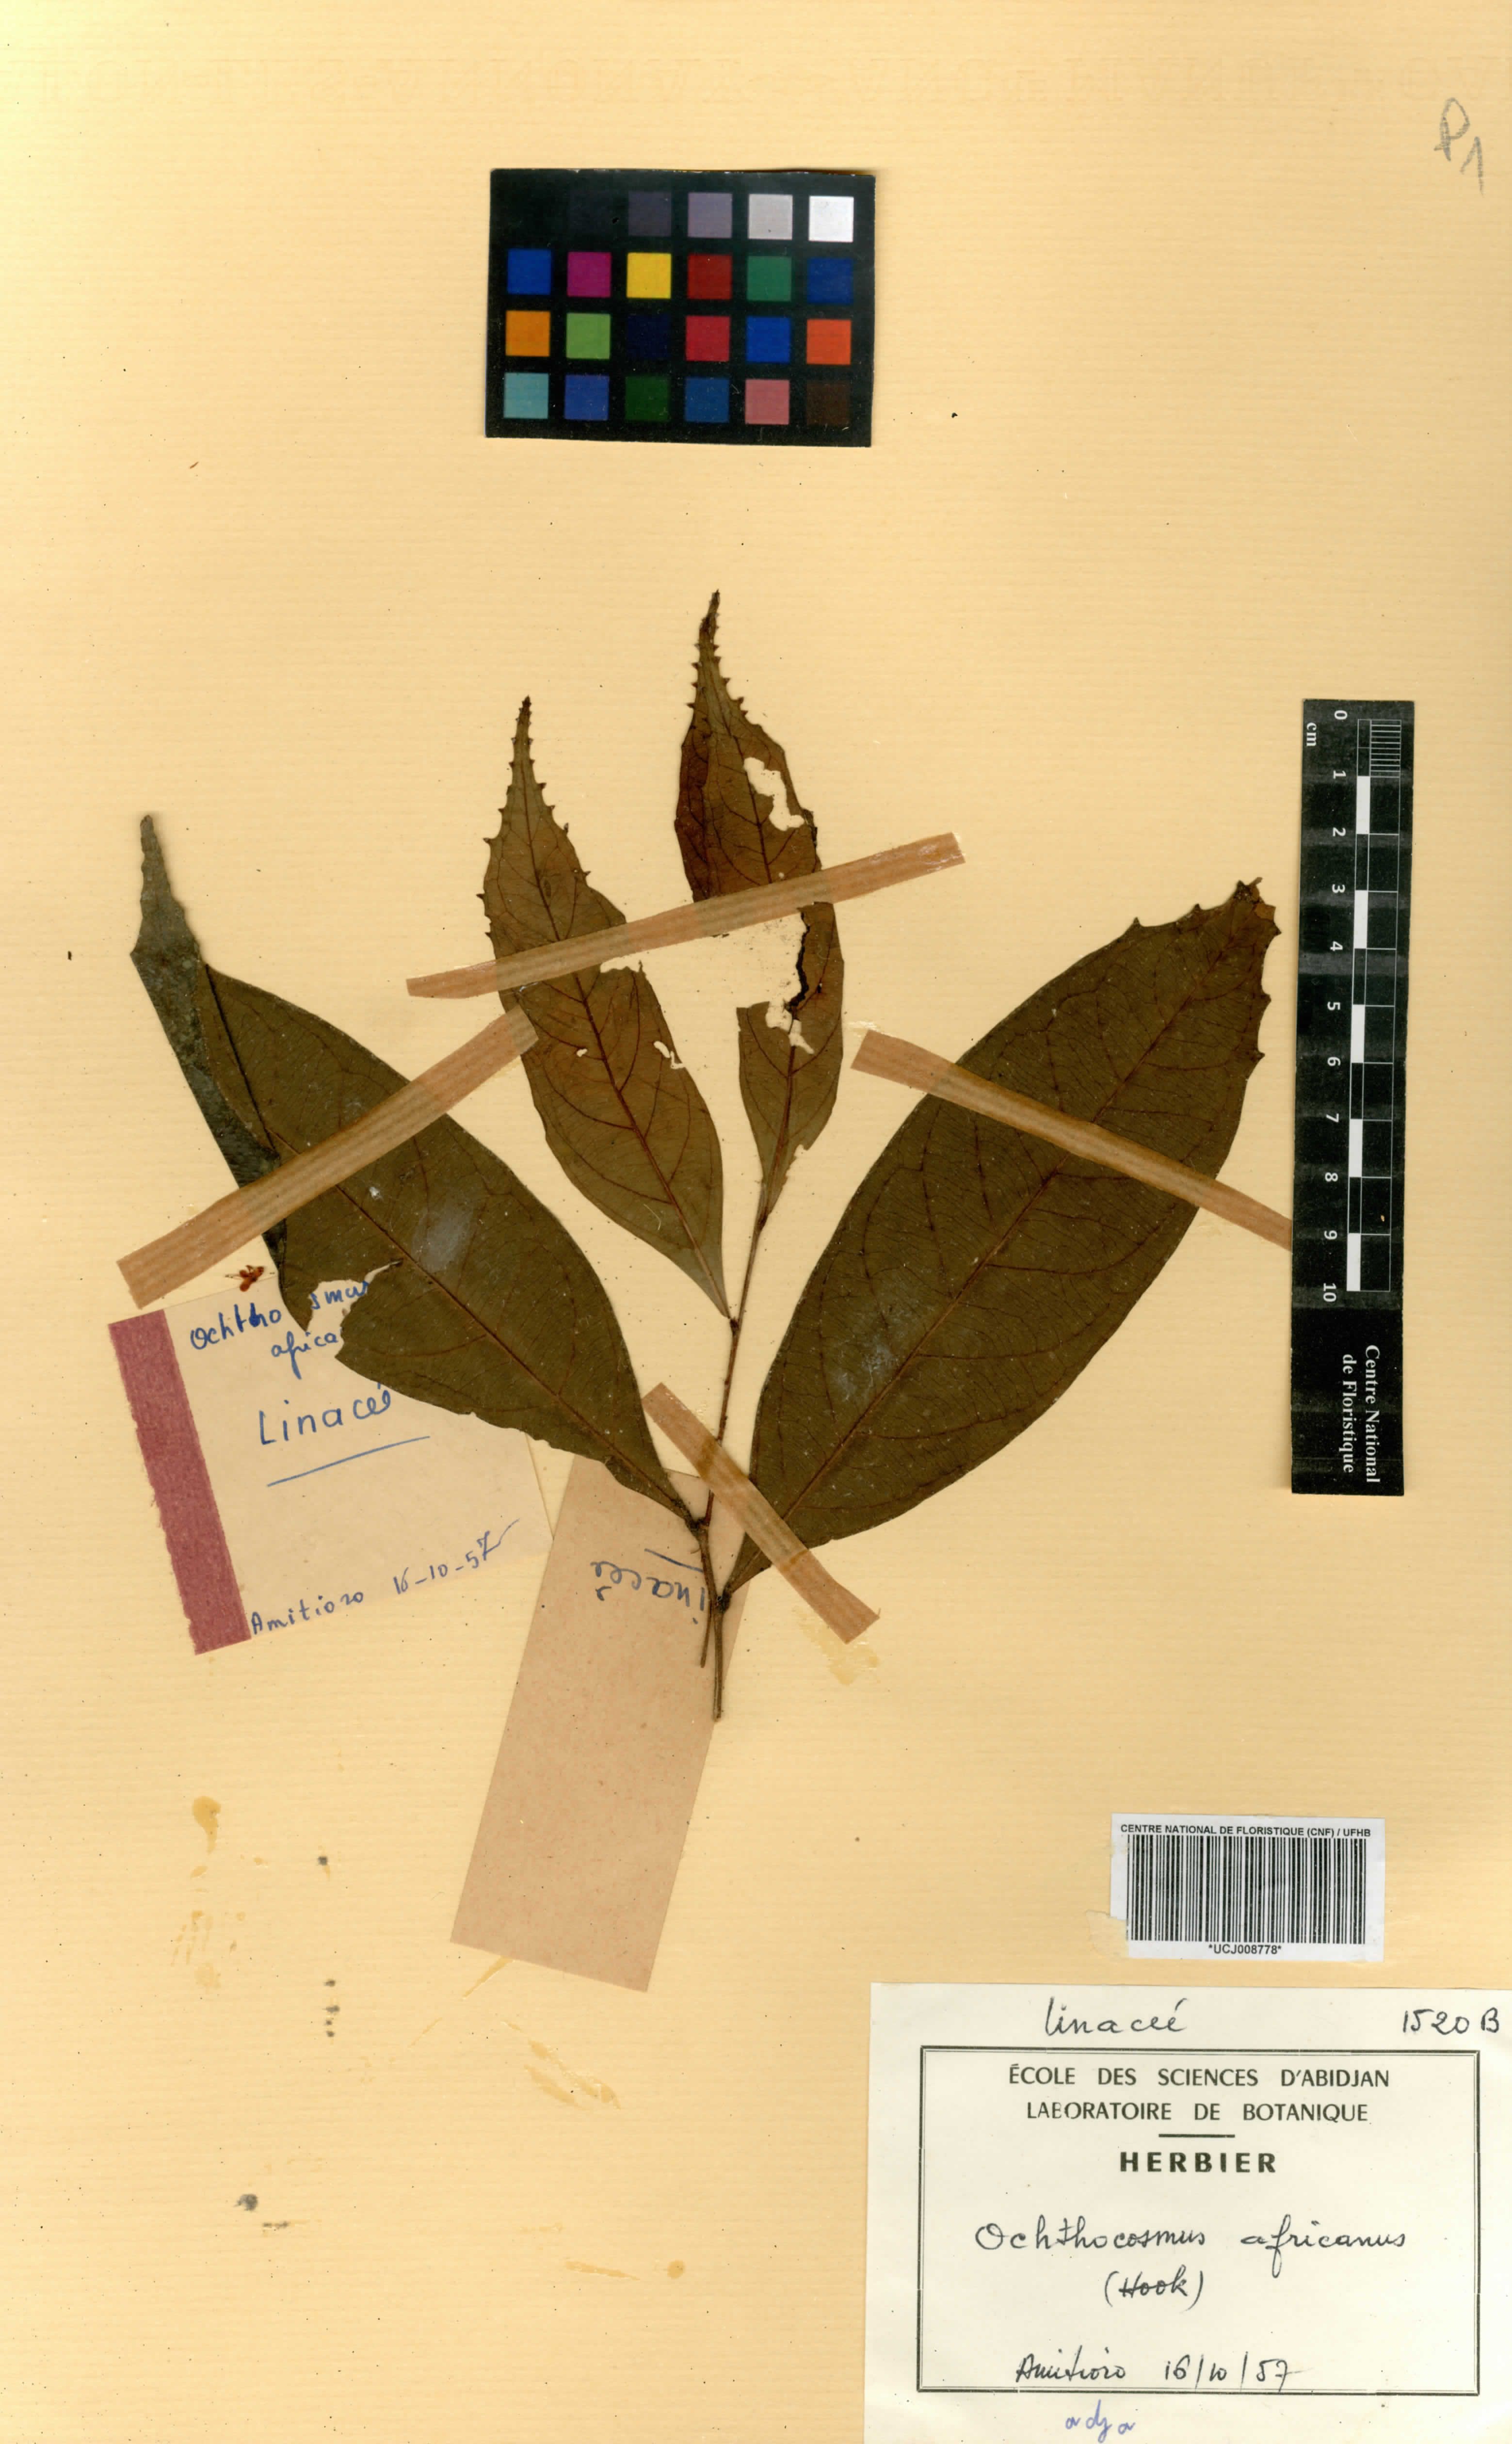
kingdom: Plantae
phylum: Tracheophyta
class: Magnoliopsida
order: Malpighiales
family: Ixonanthaceae
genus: Phyllocosmus
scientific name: Phyllocosmus africanus
